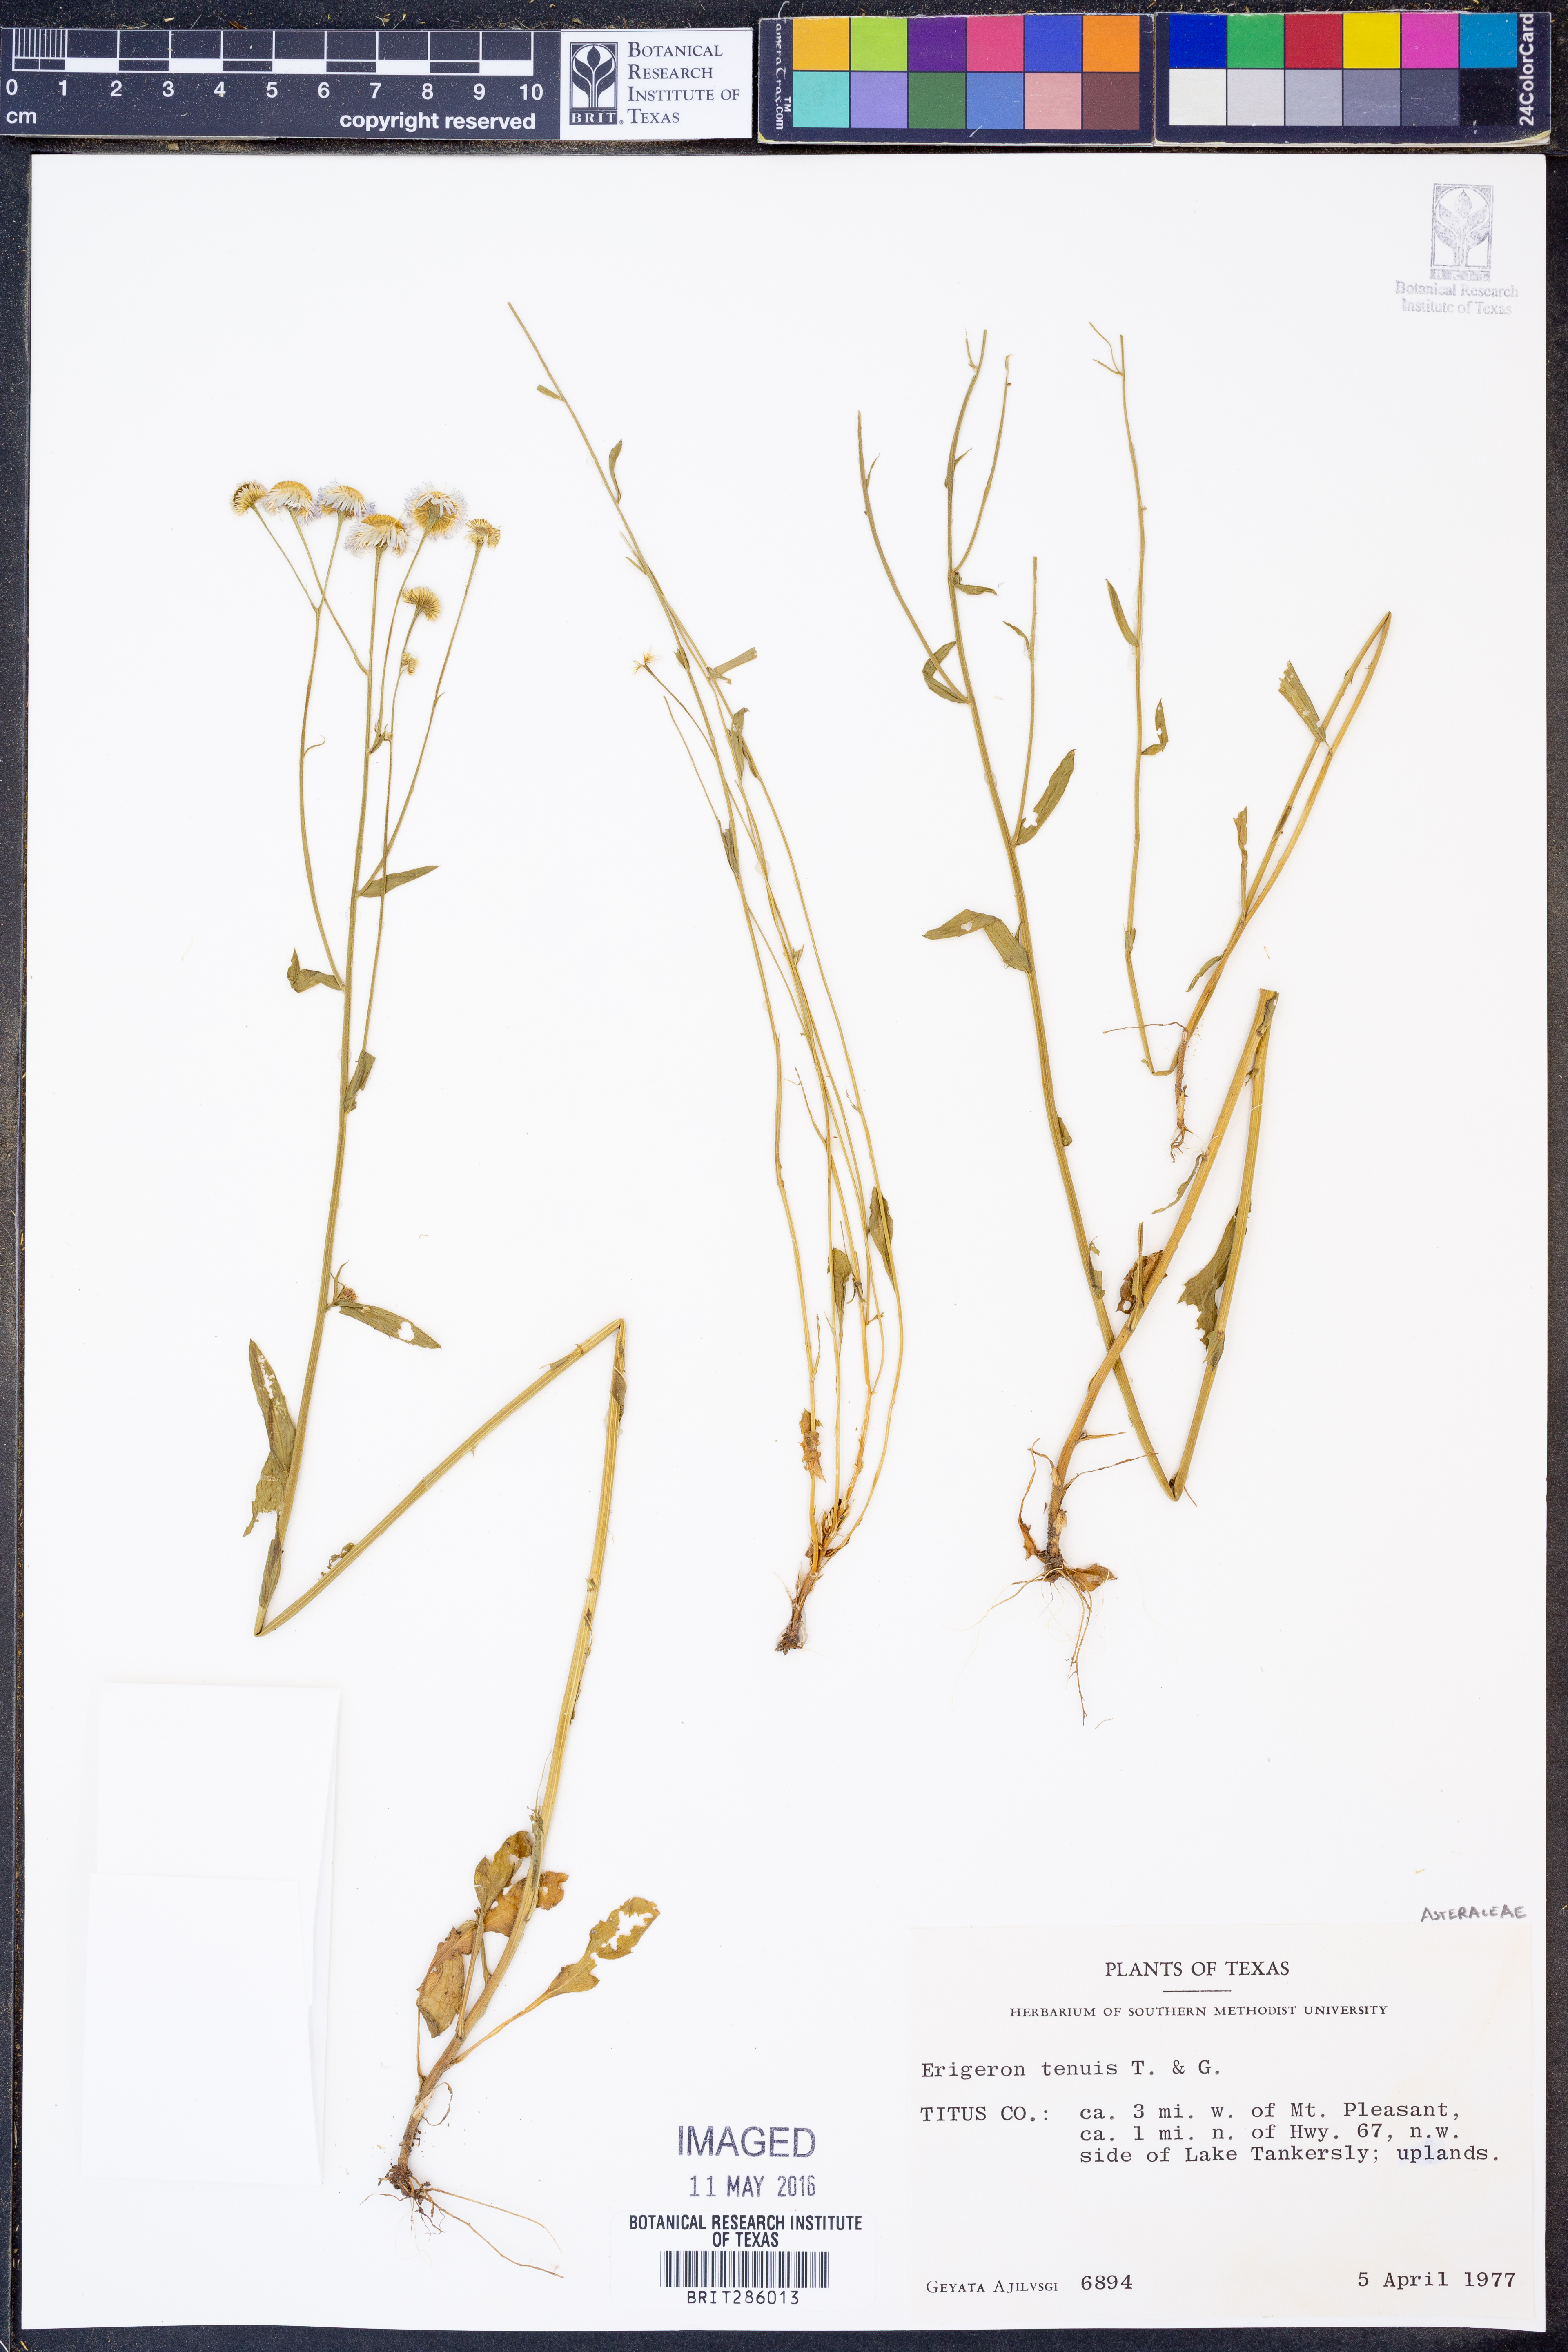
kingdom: Plantae
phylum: Tracheophyta
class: Magnoliopsida
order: Asterales
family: Asteraceae
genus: Erigeron
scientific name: Erigeron tenuis
